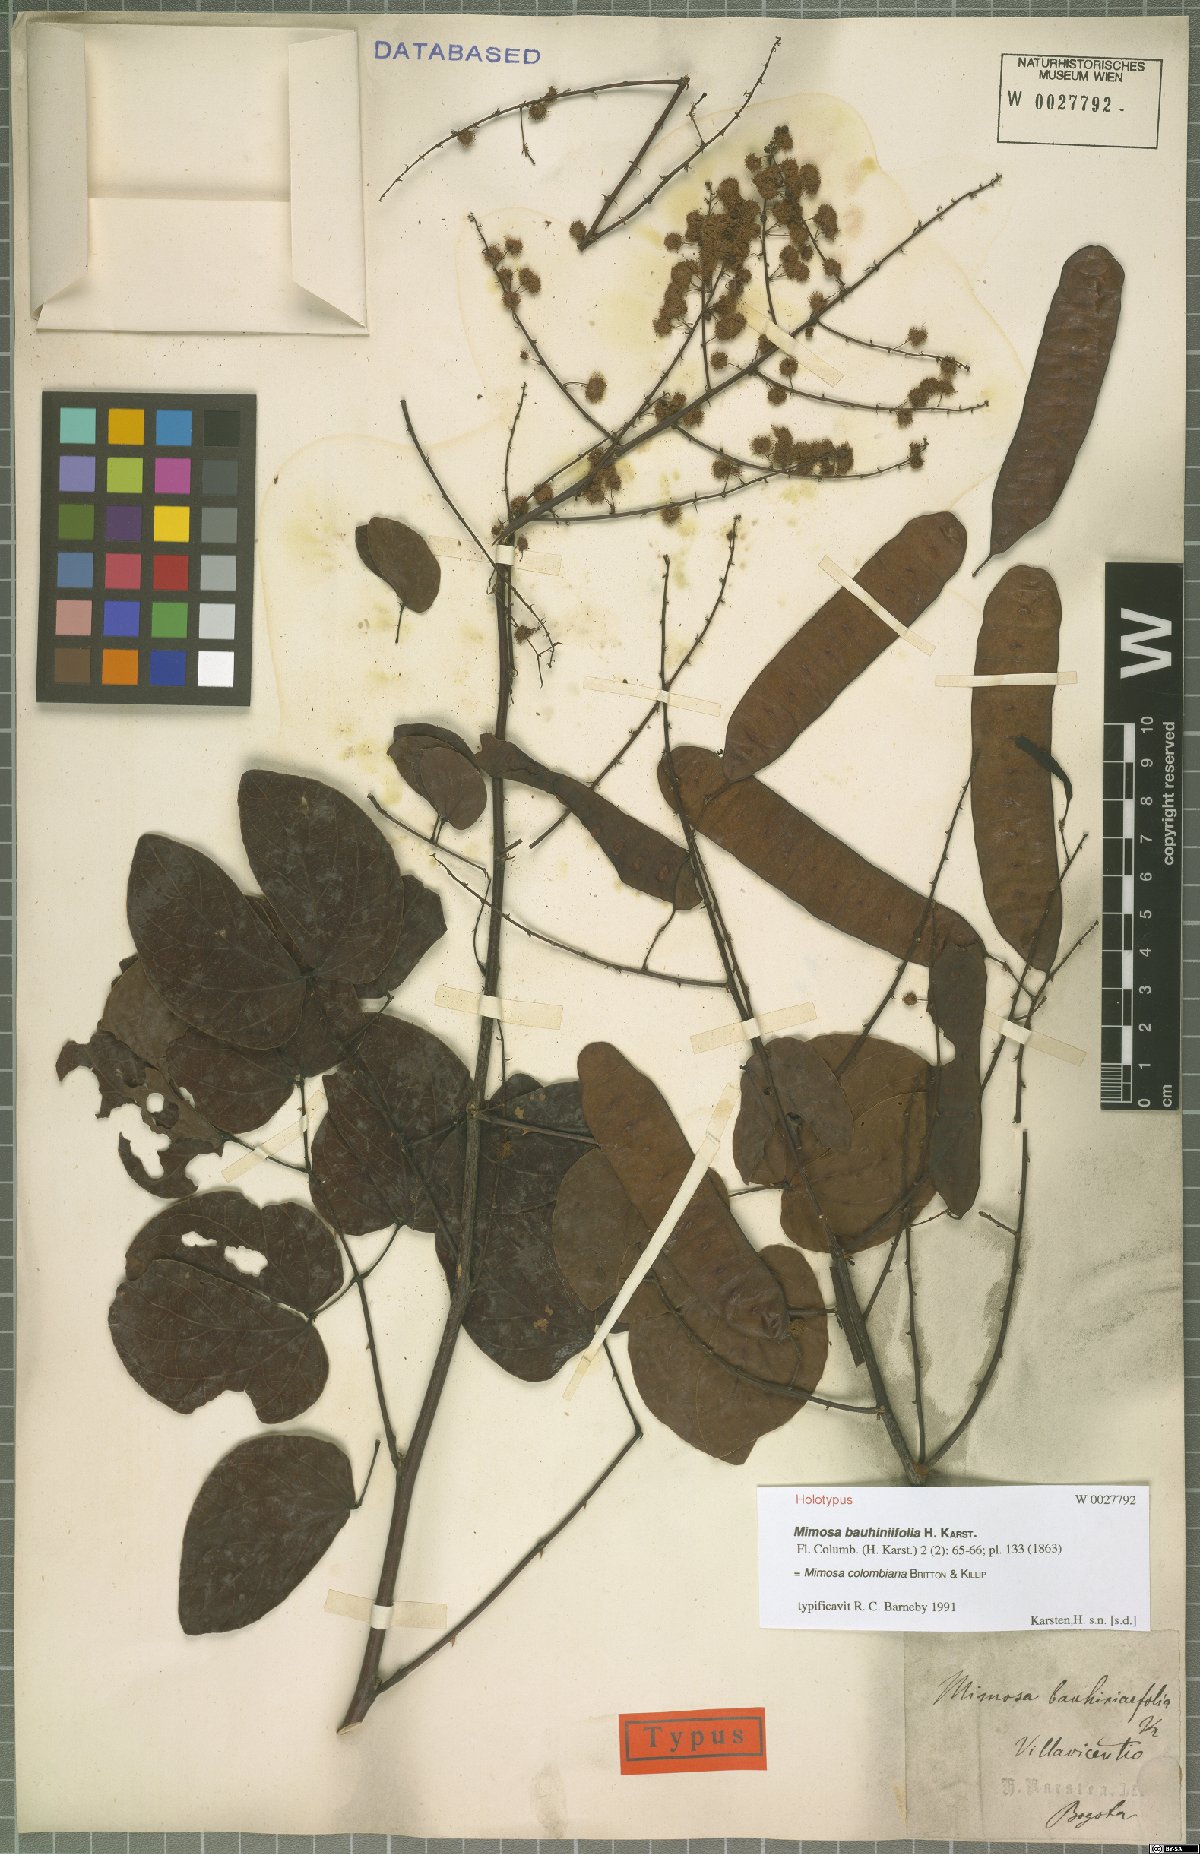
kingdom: Plantae
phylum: Tracheophyta
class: Magnoliopsida
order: Fabales
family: Fabaceae
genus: Mimosa
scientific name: Mimosa colombiana
